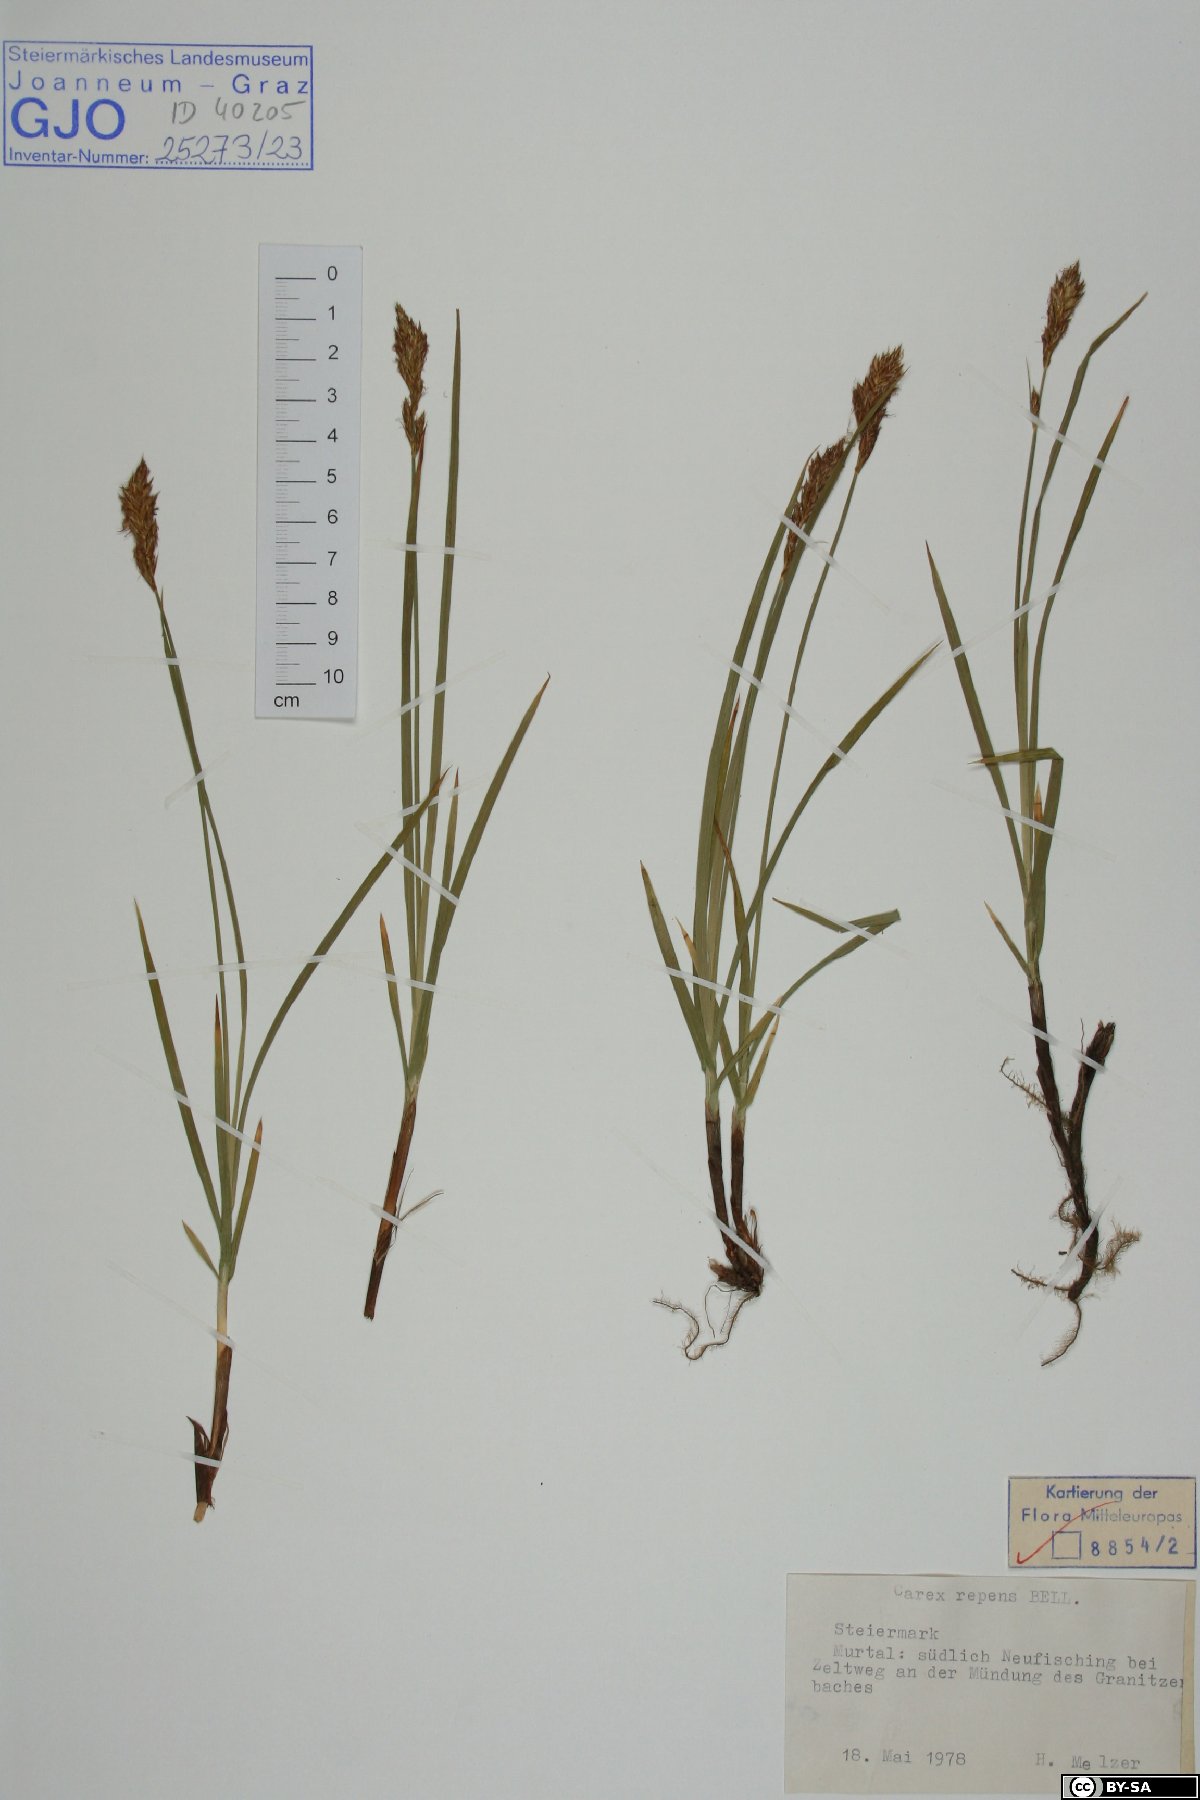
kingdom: Plantae
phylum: Tracheophyta
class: Liliopsida
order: Poales
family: Cyperaceae
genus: Carex
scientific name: Carex repens
